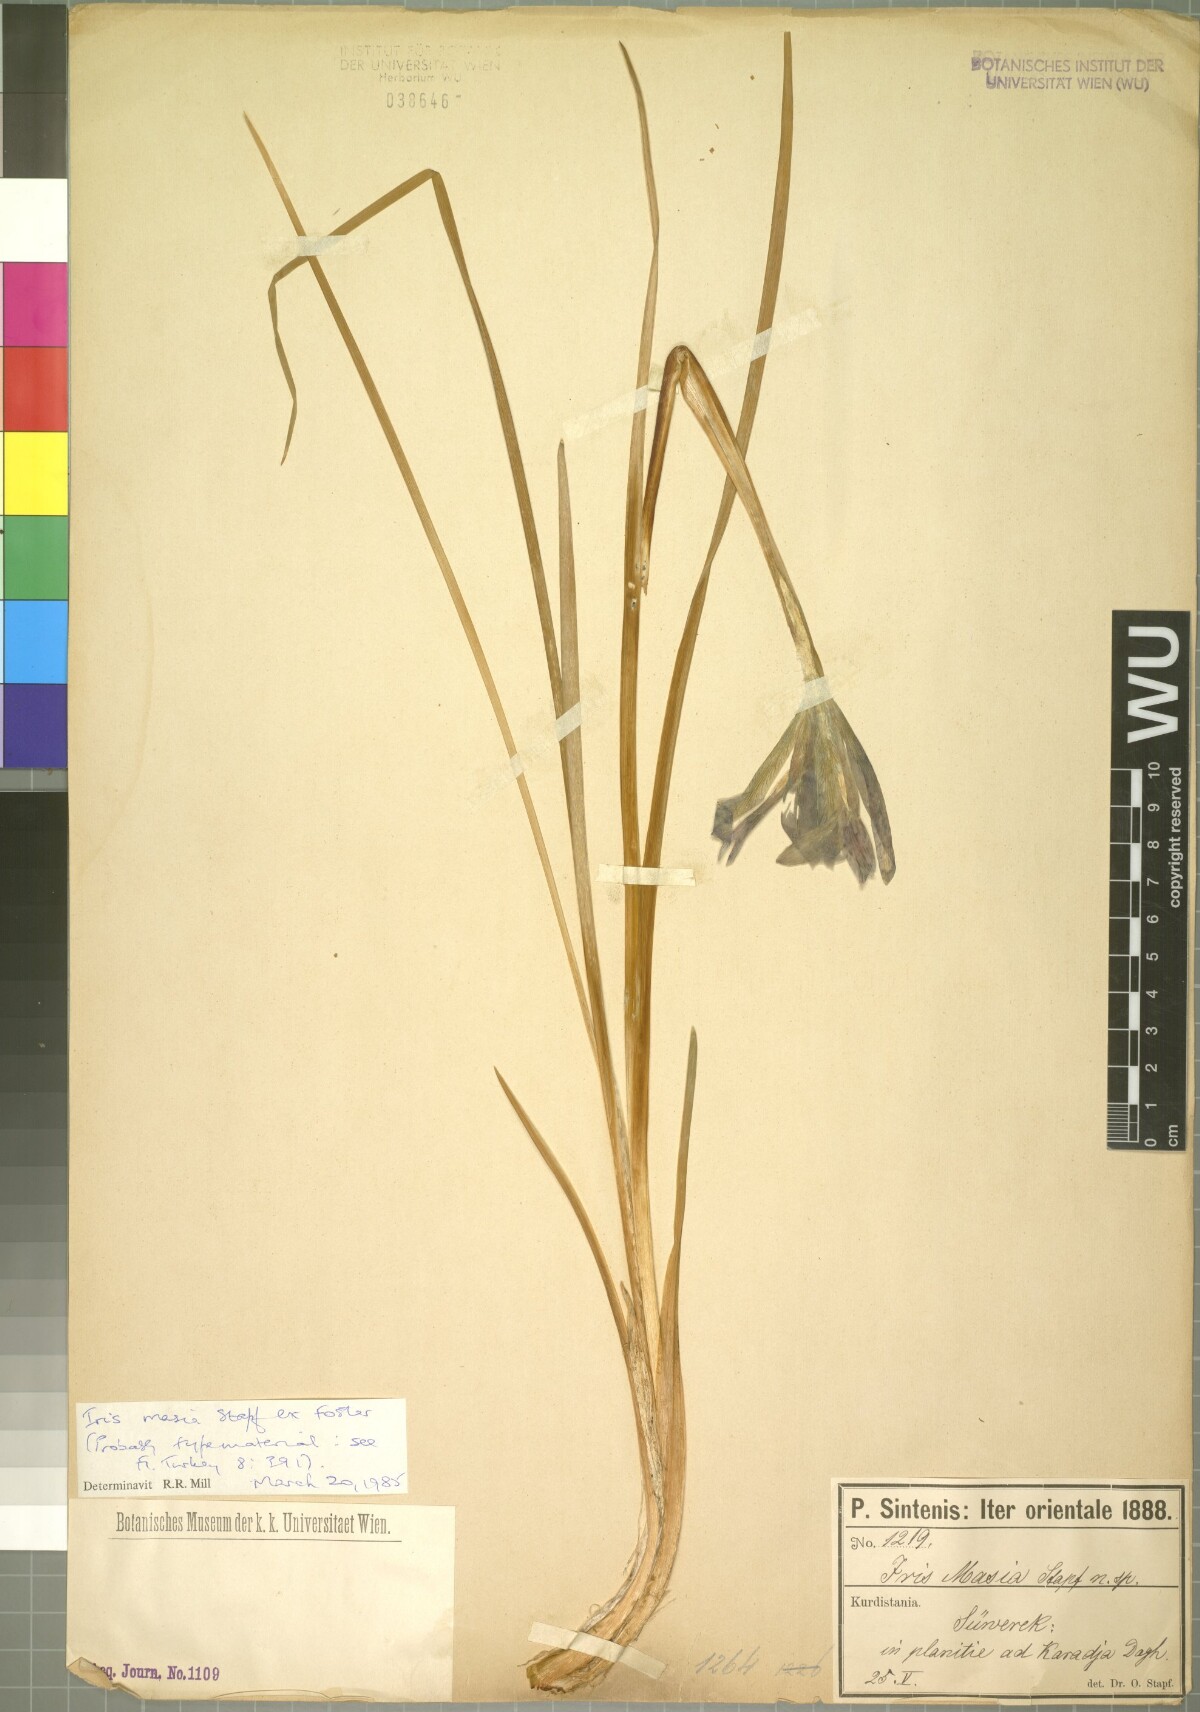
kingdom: Plantae
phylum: Tracheophyta
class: Liliopsida
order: Asparagales
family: Iridaceae
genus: Iris
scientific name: Iris masia
